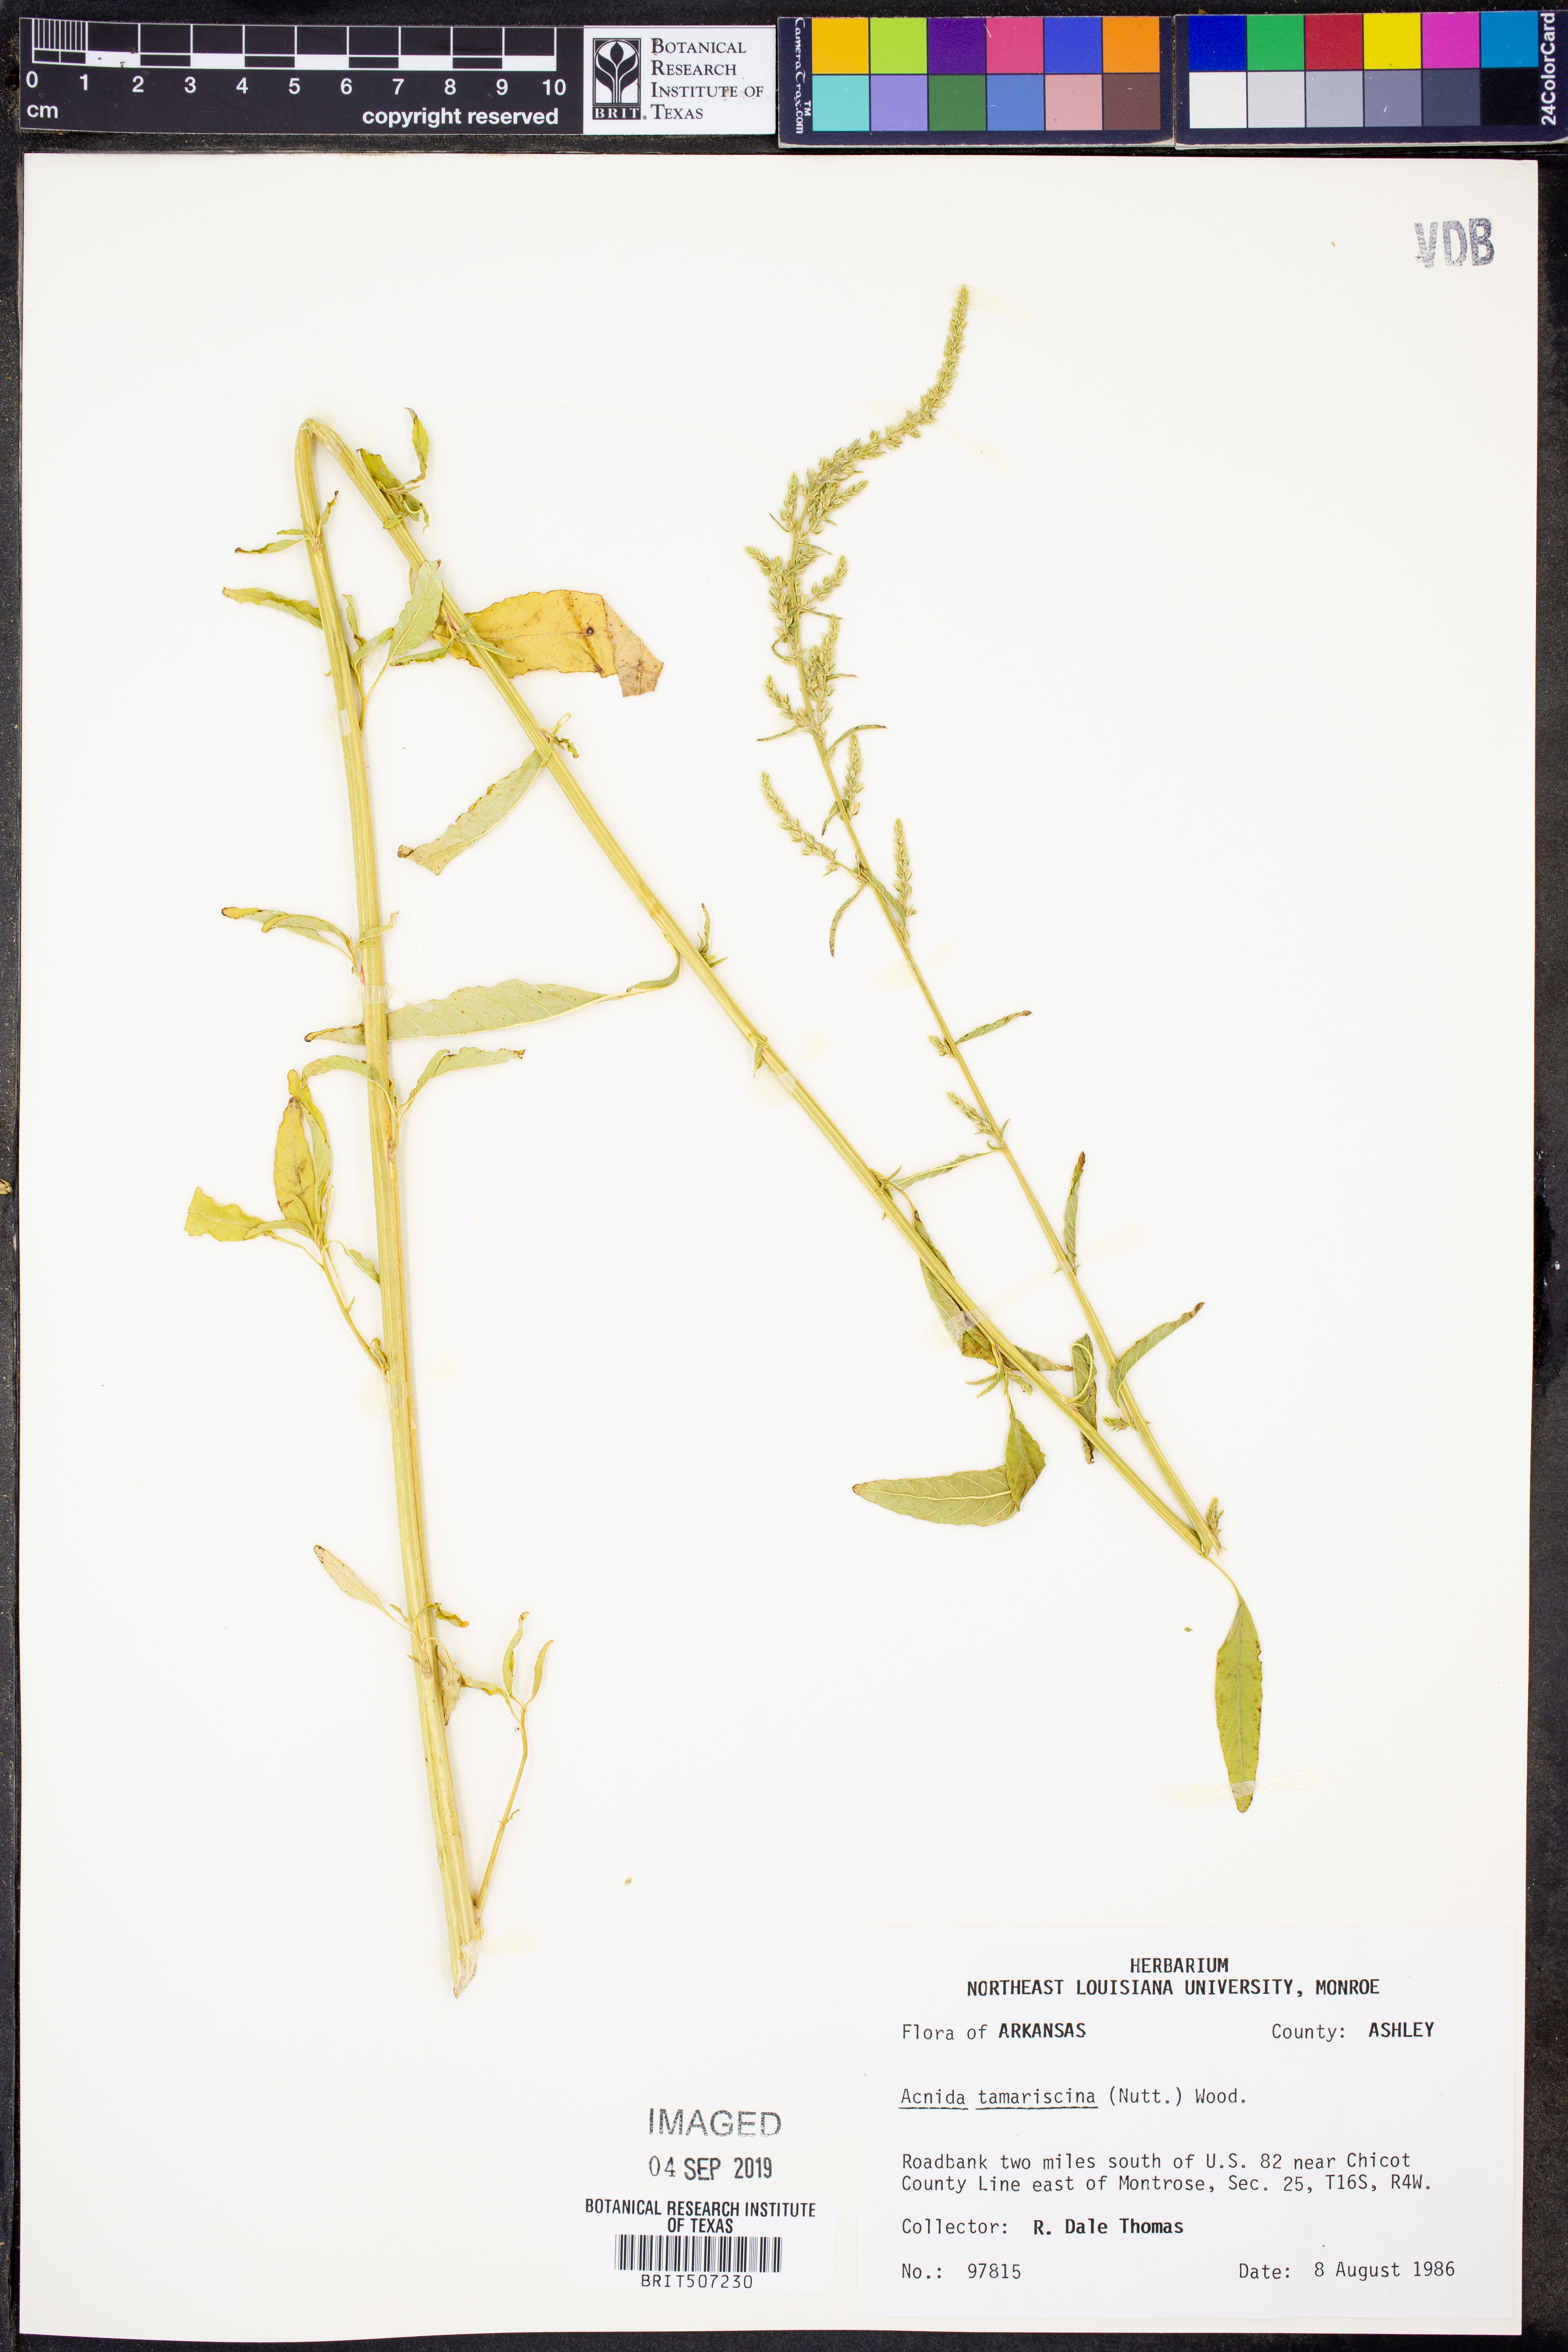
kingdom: Plantae
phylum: Tracheophyta
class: Magnoliopsida
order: Caryophyllales
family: Amaranthaceae
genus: Amaranthus
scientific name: Amaranthus tamariscinus
